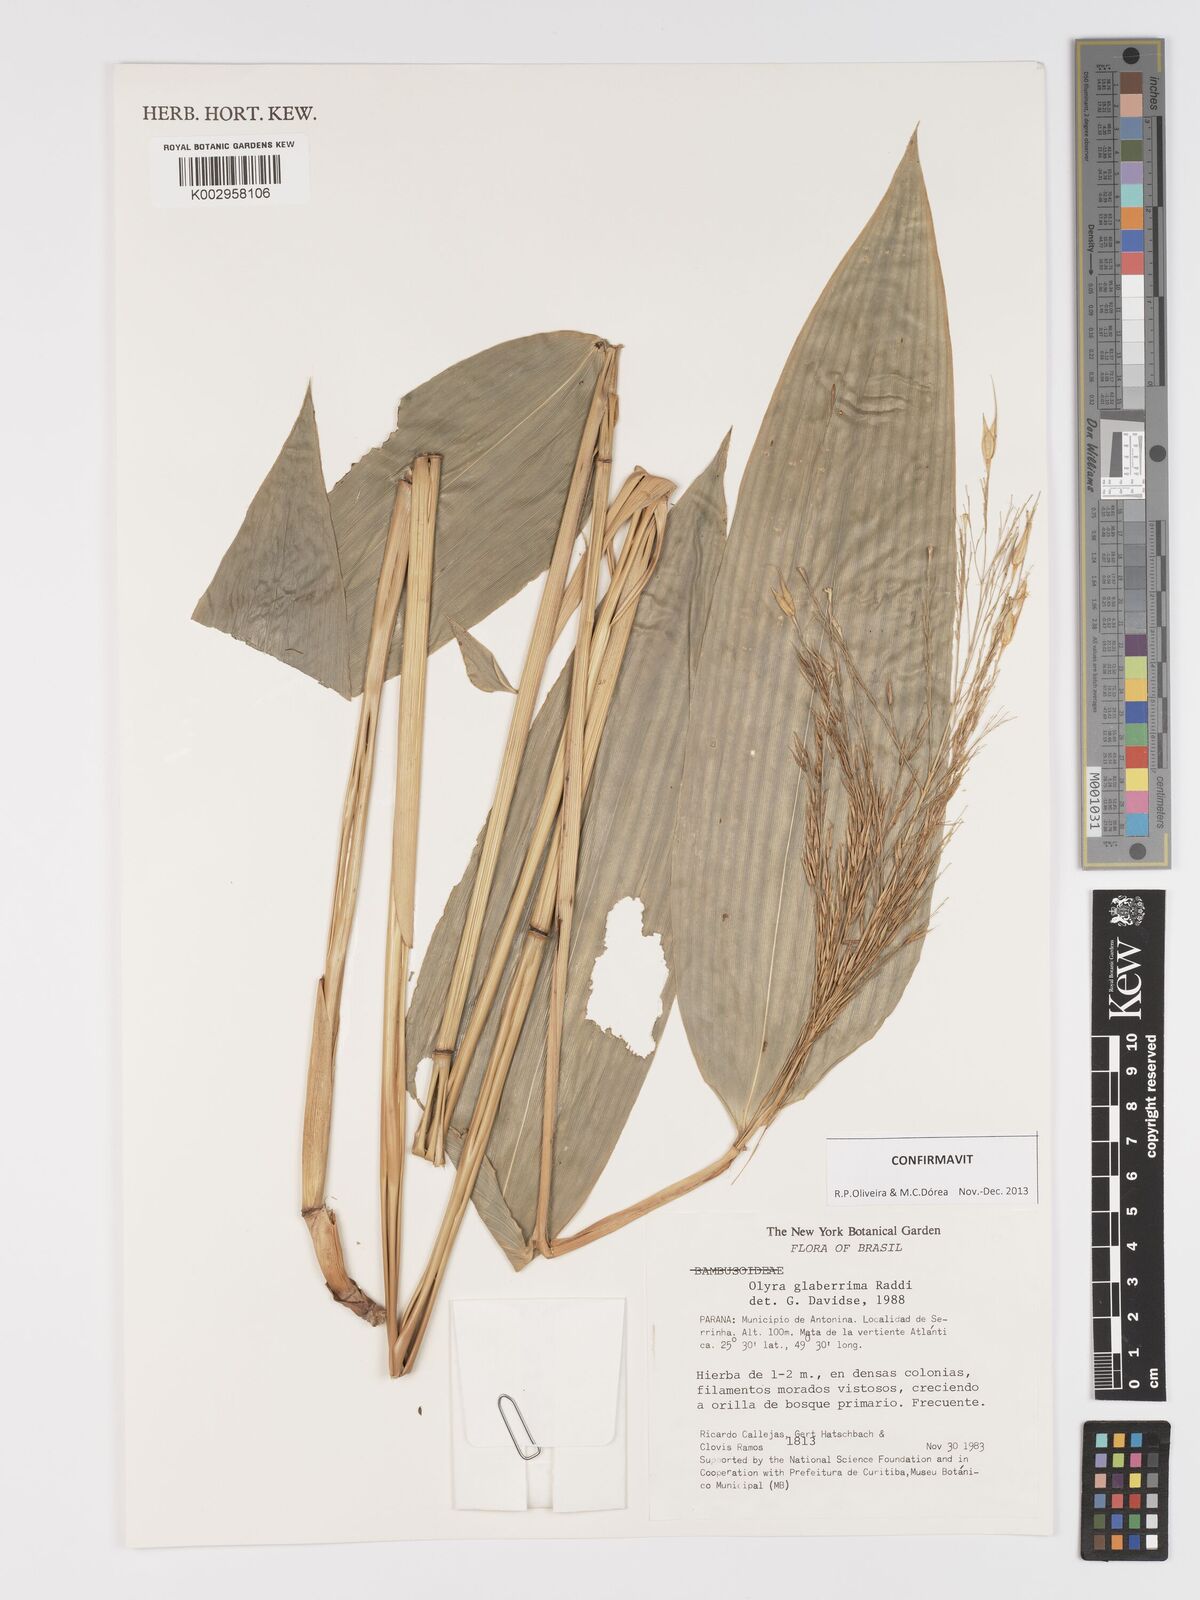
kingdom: Plantae
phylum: Tracheophyta
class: Liliopsida
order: Poales
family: Poaceae
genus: Olyra
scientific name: Olyra glaberrima
